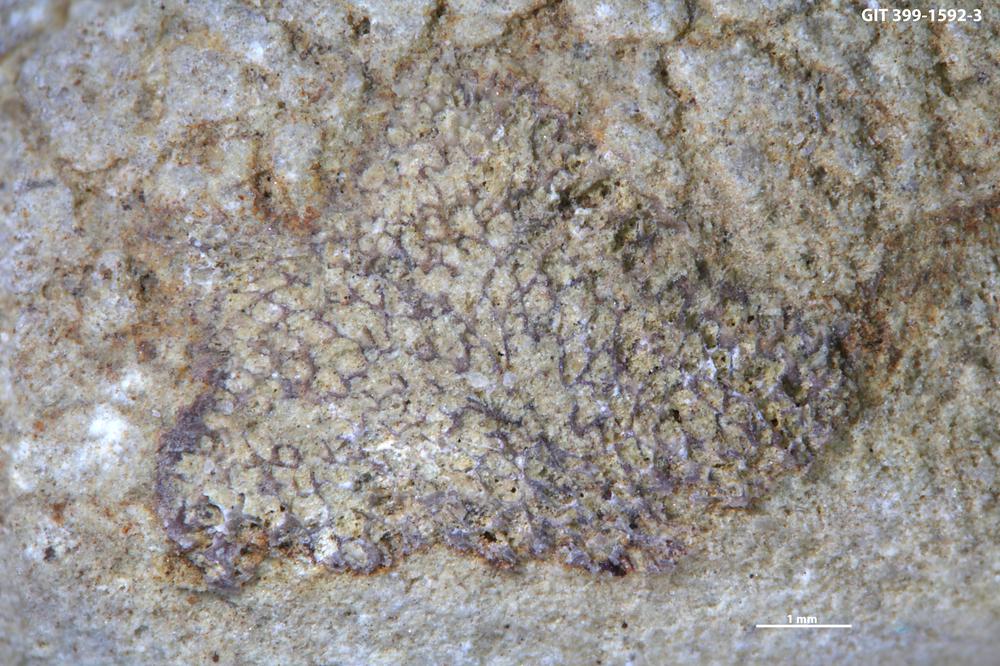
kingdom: Animalia
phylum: Bryozoa
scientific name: Bryozoa
